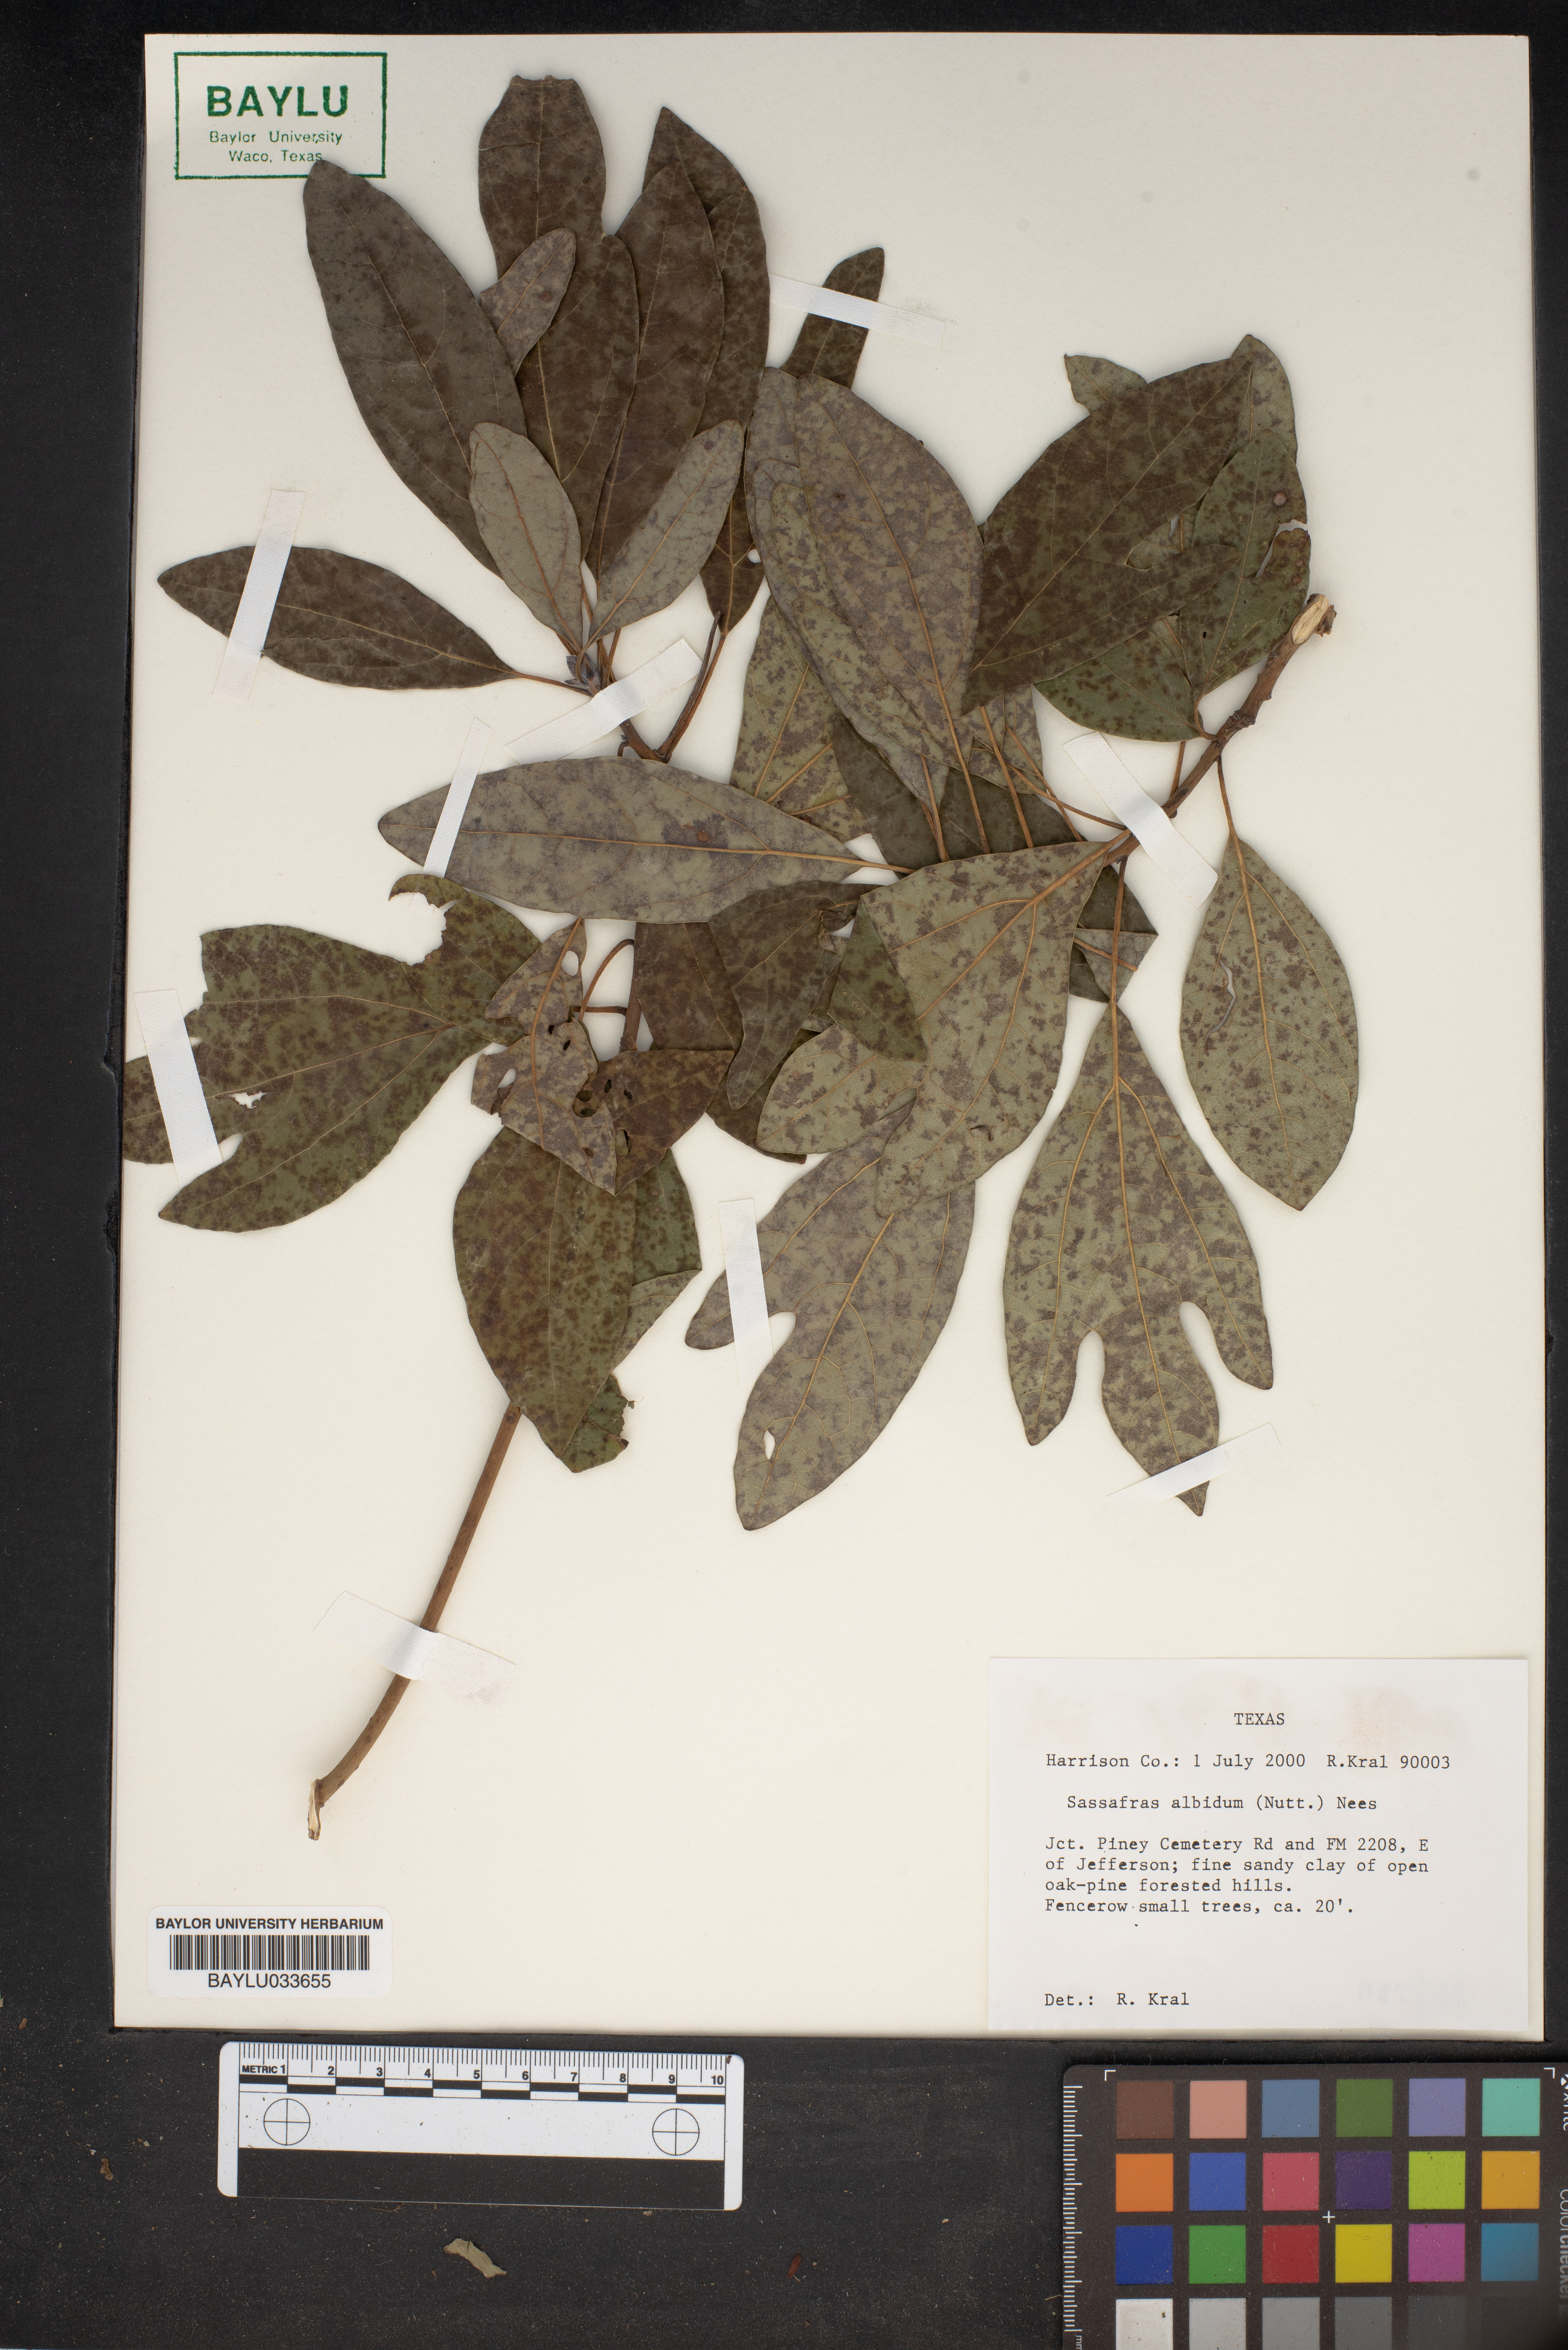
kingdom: Plantae
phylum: Tracheophyta
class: Magnoliopsida
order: Laurales
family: Lauraceae
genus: Sassafras
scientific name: Sassafras albidum
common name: Sassafras
